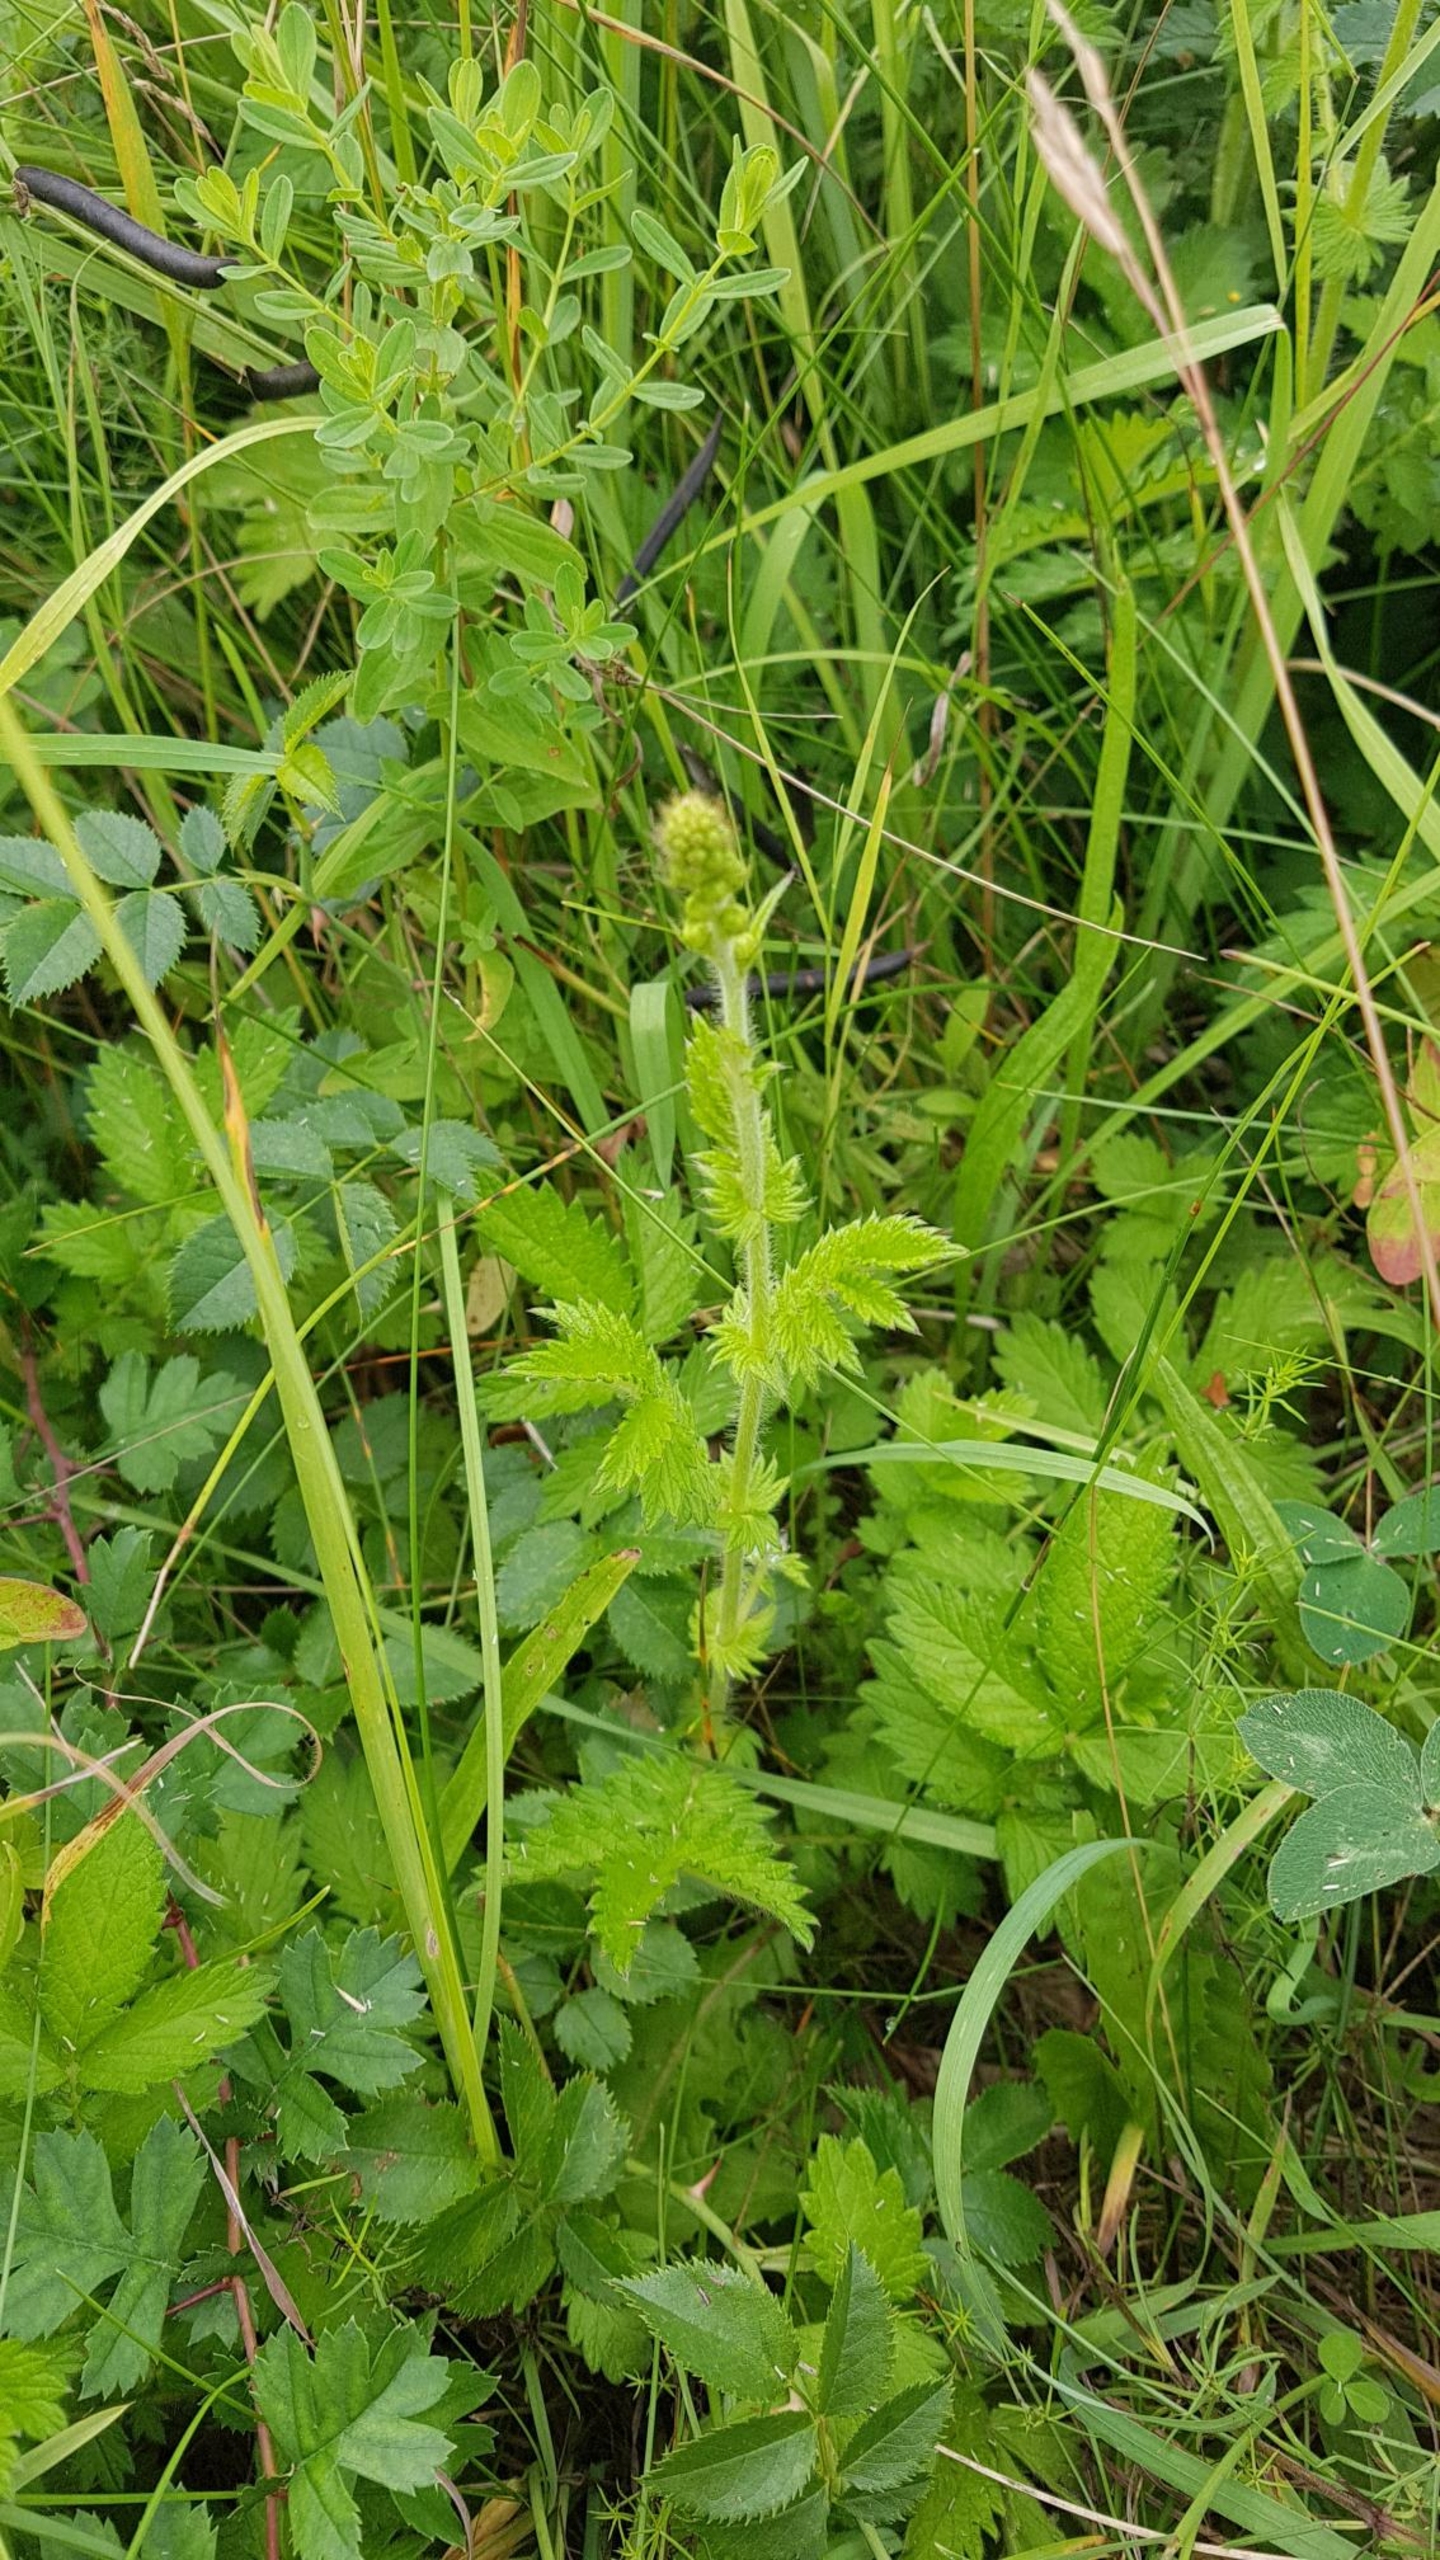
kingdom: Plantae
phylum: Tracheophyta
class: Magnoliopsida
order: Rosales
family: Rosaceae
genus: Agrimonia
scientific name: Agrimonia eupatoria
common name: Almindelig agermåne
